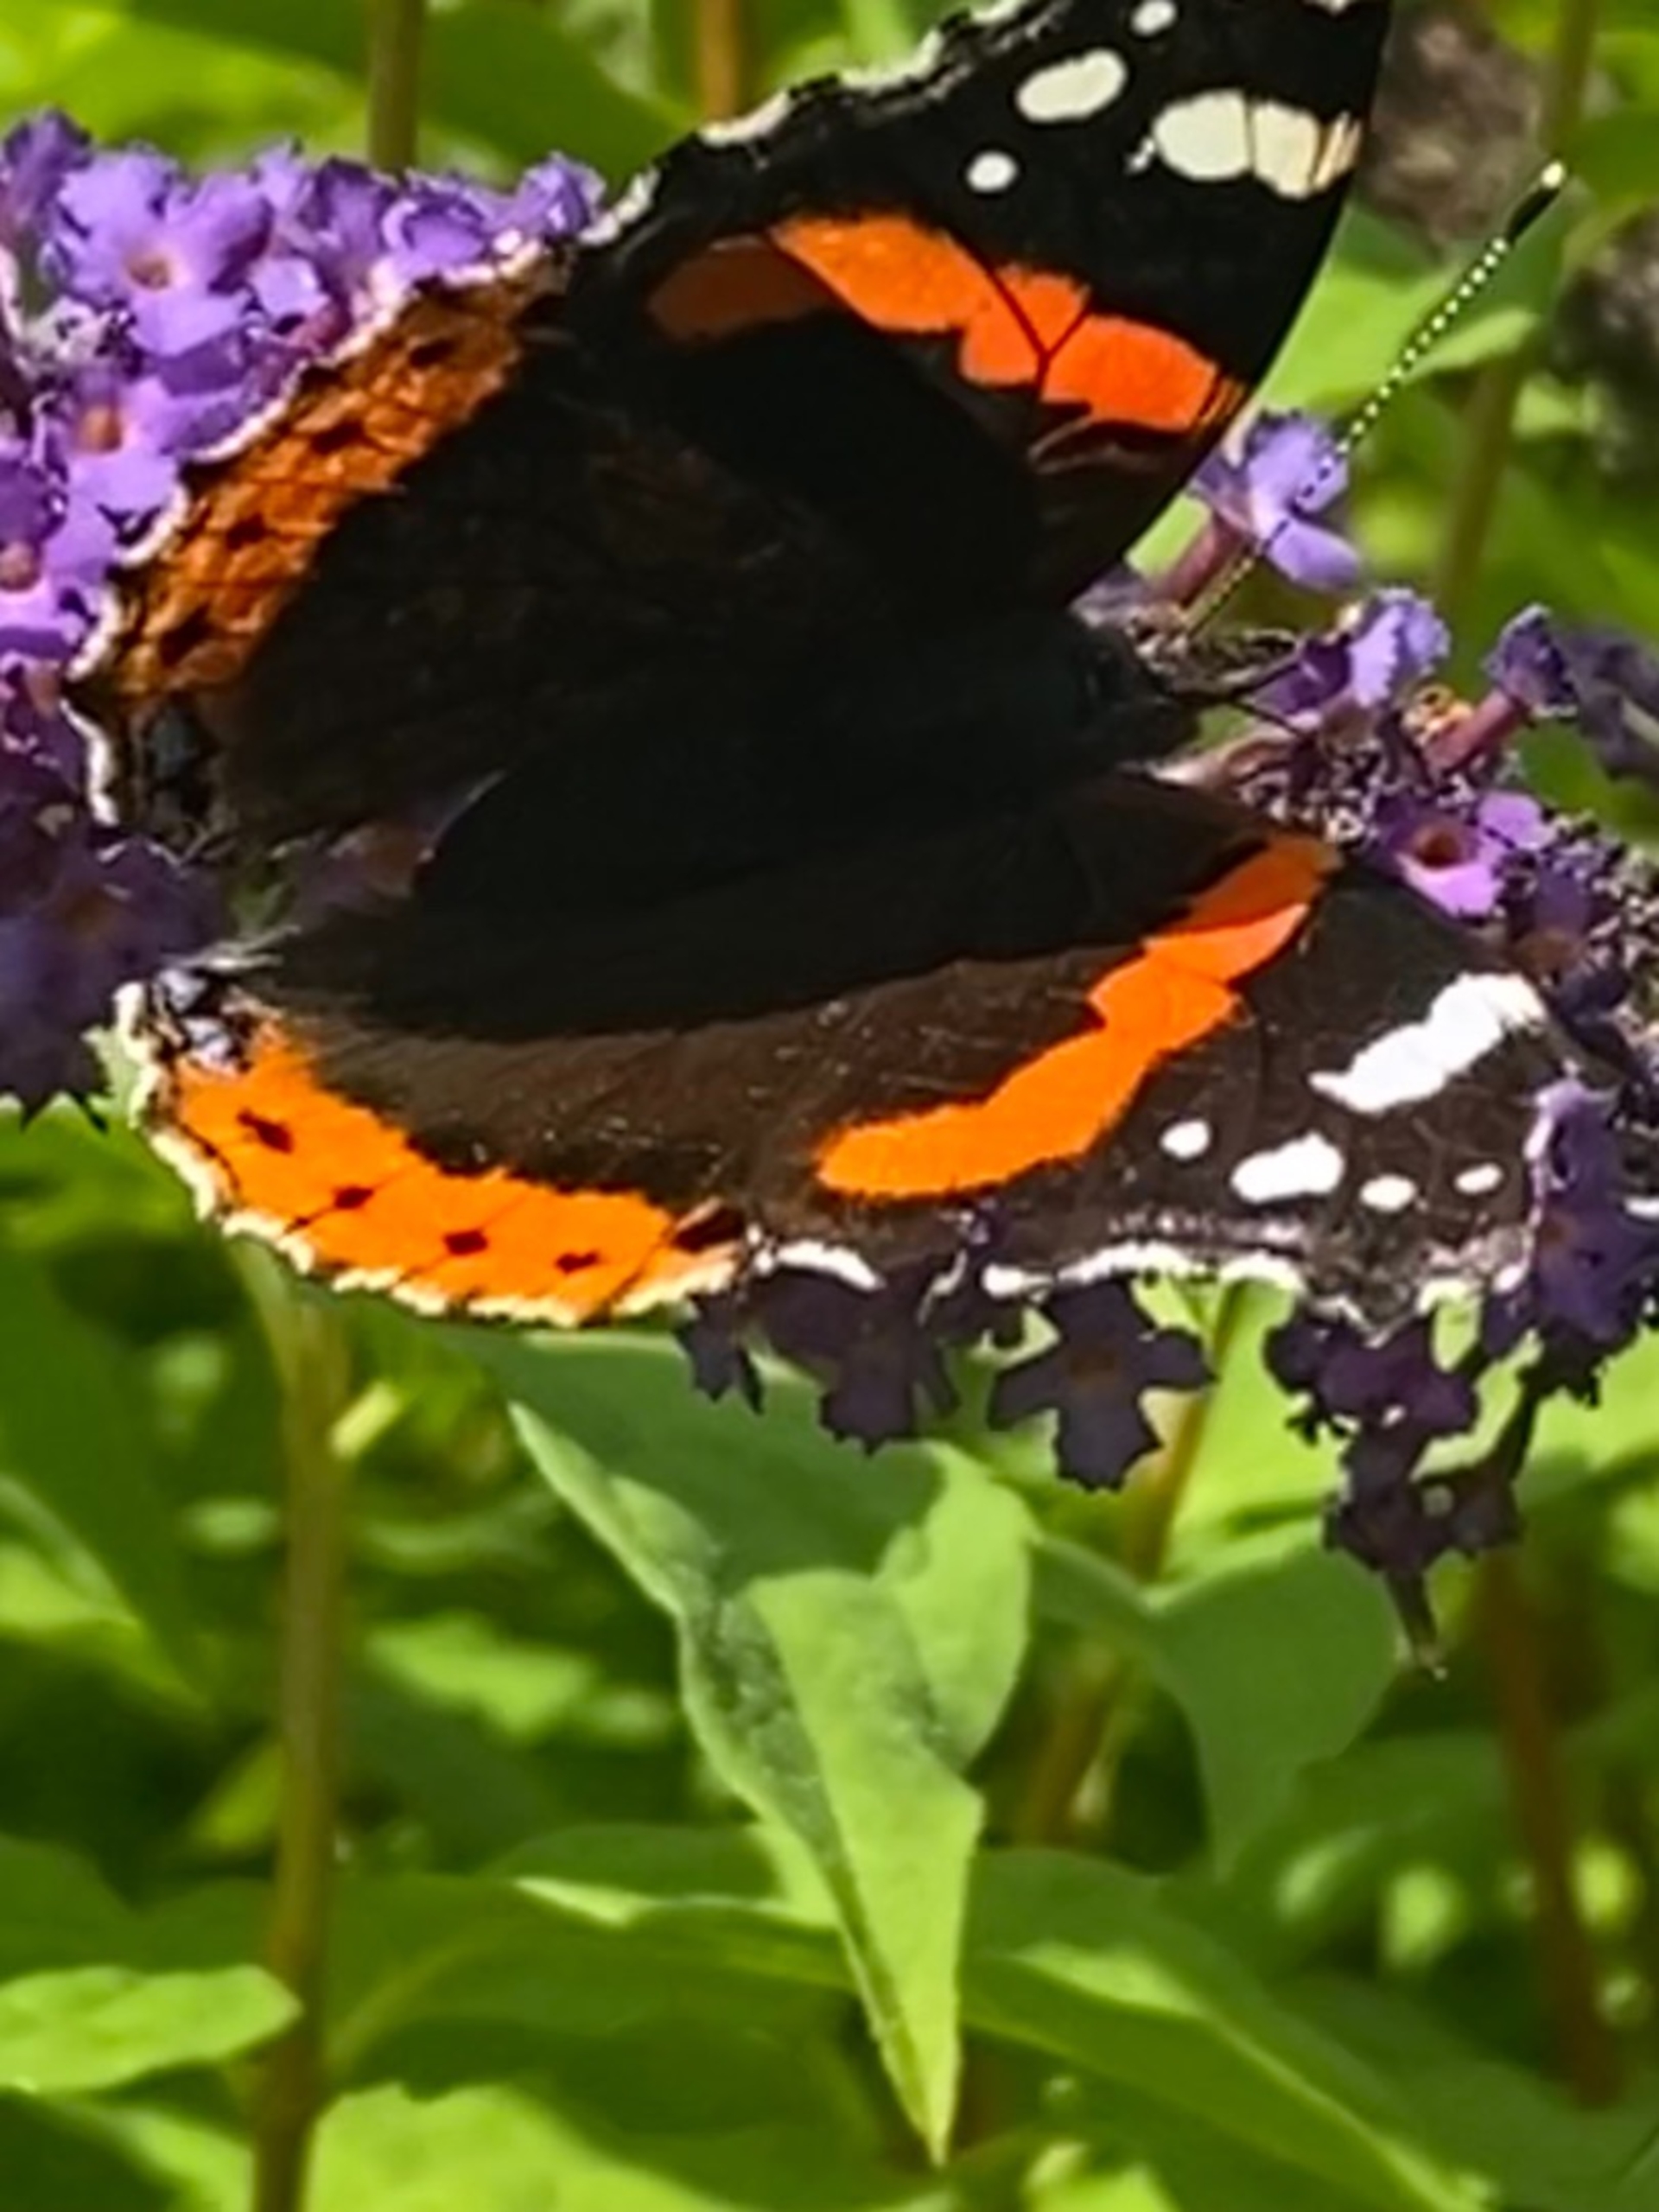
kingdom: Animalia
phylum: Arthropoda
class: Insecta
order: Lepidoptera
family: Nymphalidae
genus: Vanessa
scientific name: Vanessa atalanta
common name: Admiral
